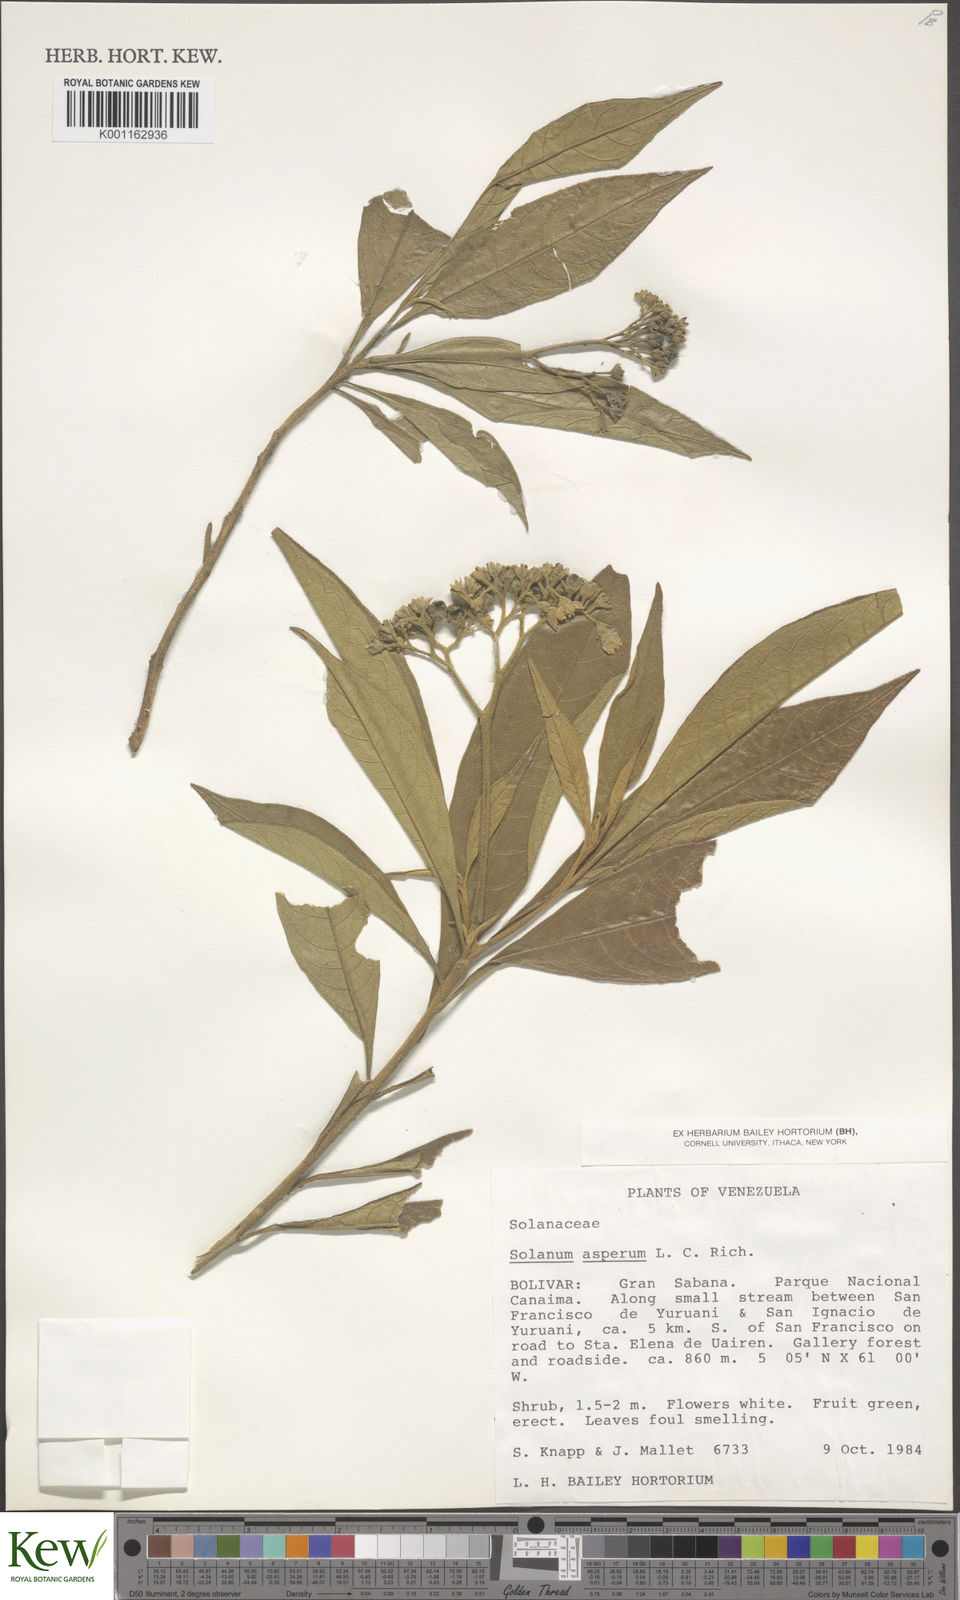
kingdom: Plantae
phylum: Tracheophyta
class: Magnoliopsida
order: Solanales
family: Solanaceae
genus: Solanum
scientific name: Solanum asperum
